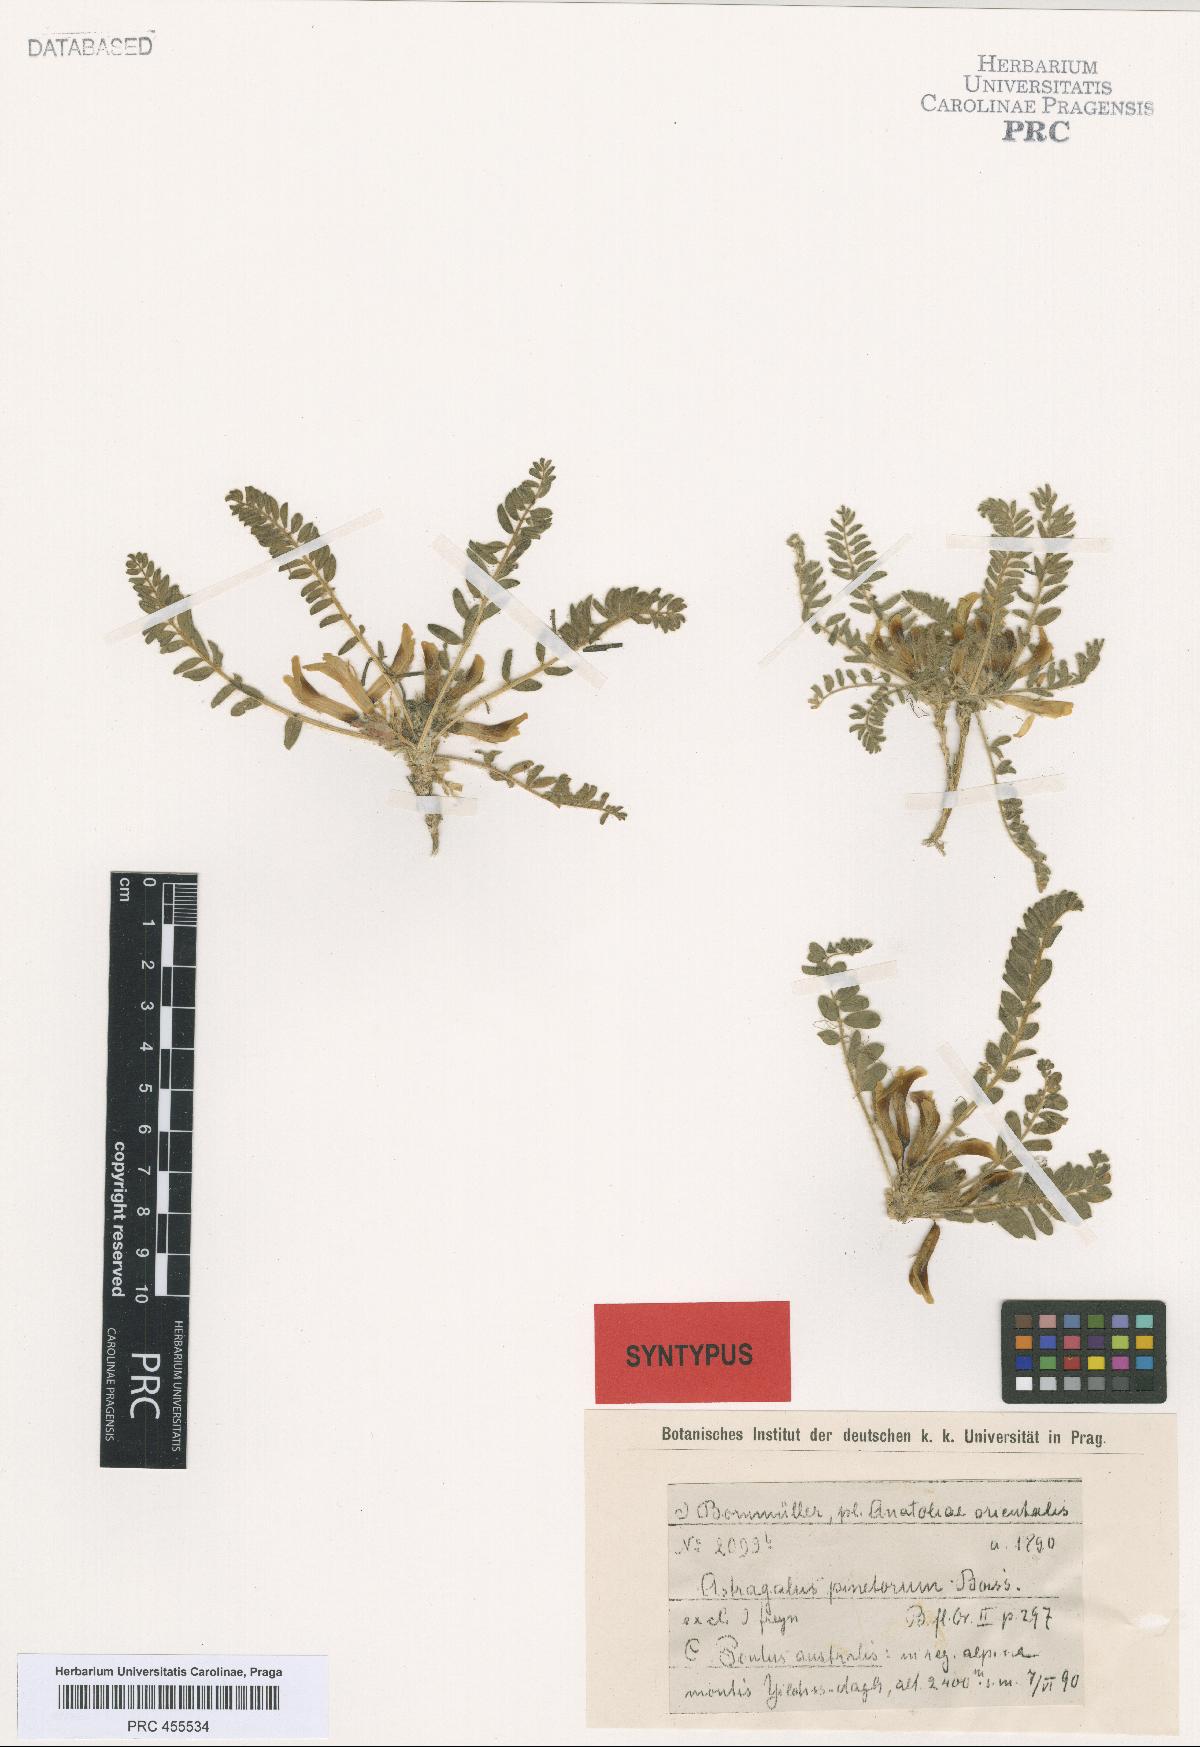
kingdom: Plantae
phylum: Tracheophyta
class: Magnoliopsida
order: Fabales
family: Fabaceae
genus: Astragalus
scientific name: Astragalus pinetorum
